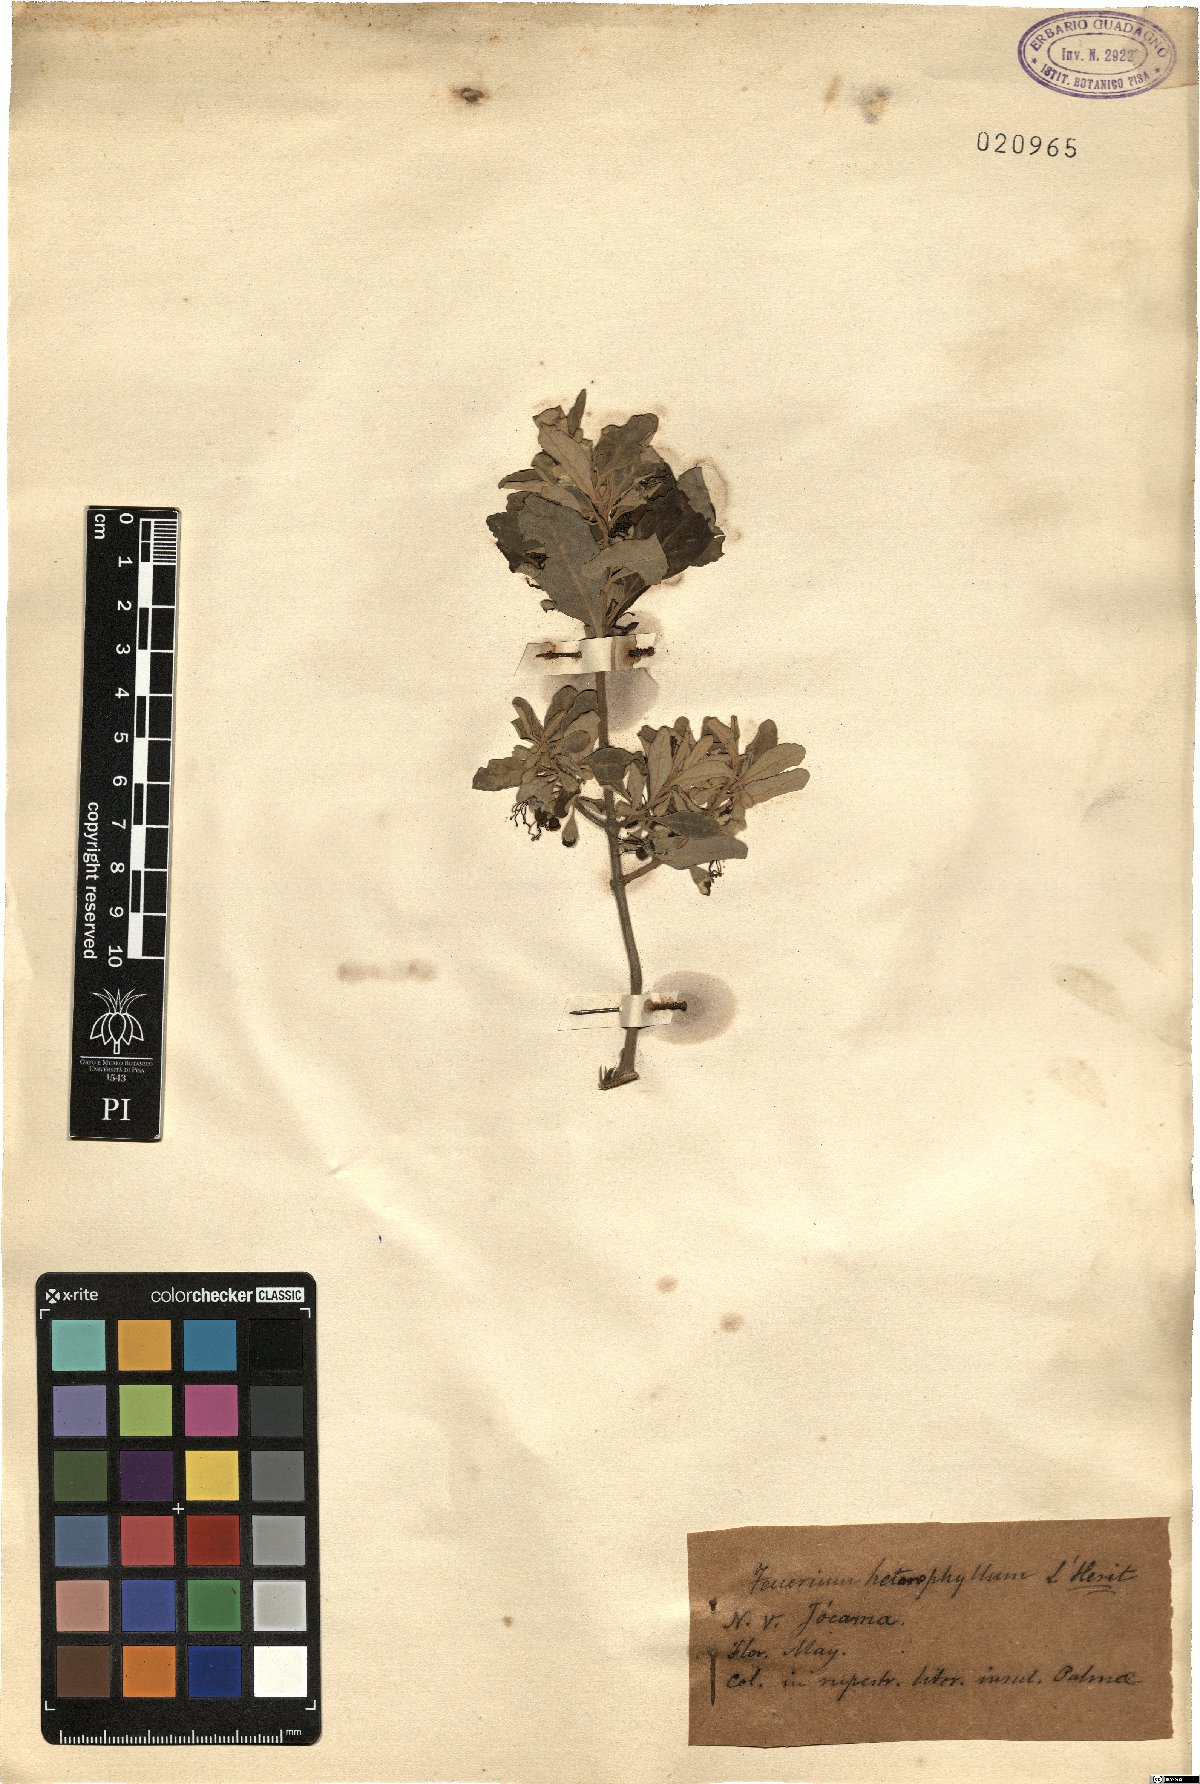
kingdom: Plantae
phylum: Tracheophyta
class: Magnoliopsida
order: Lamiales
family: Lamiaceae
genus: Teucrium
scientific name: Teucrium heterophyllum
